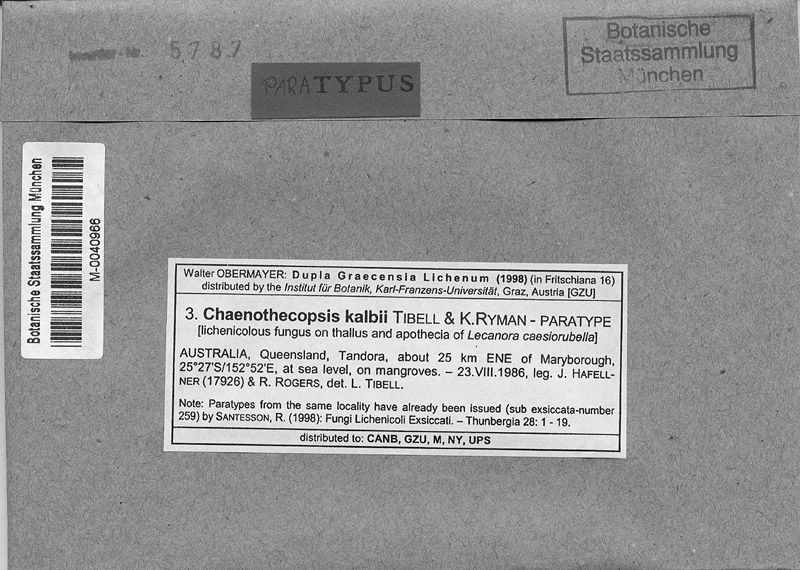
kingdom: Fungi
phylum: Ascomycota
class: Lecanoromycetes
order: Lecanorales
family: Lecanoraceae
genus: Lecanora
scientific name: Lecanora caesiorubella
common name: Frosted rim-lichen
